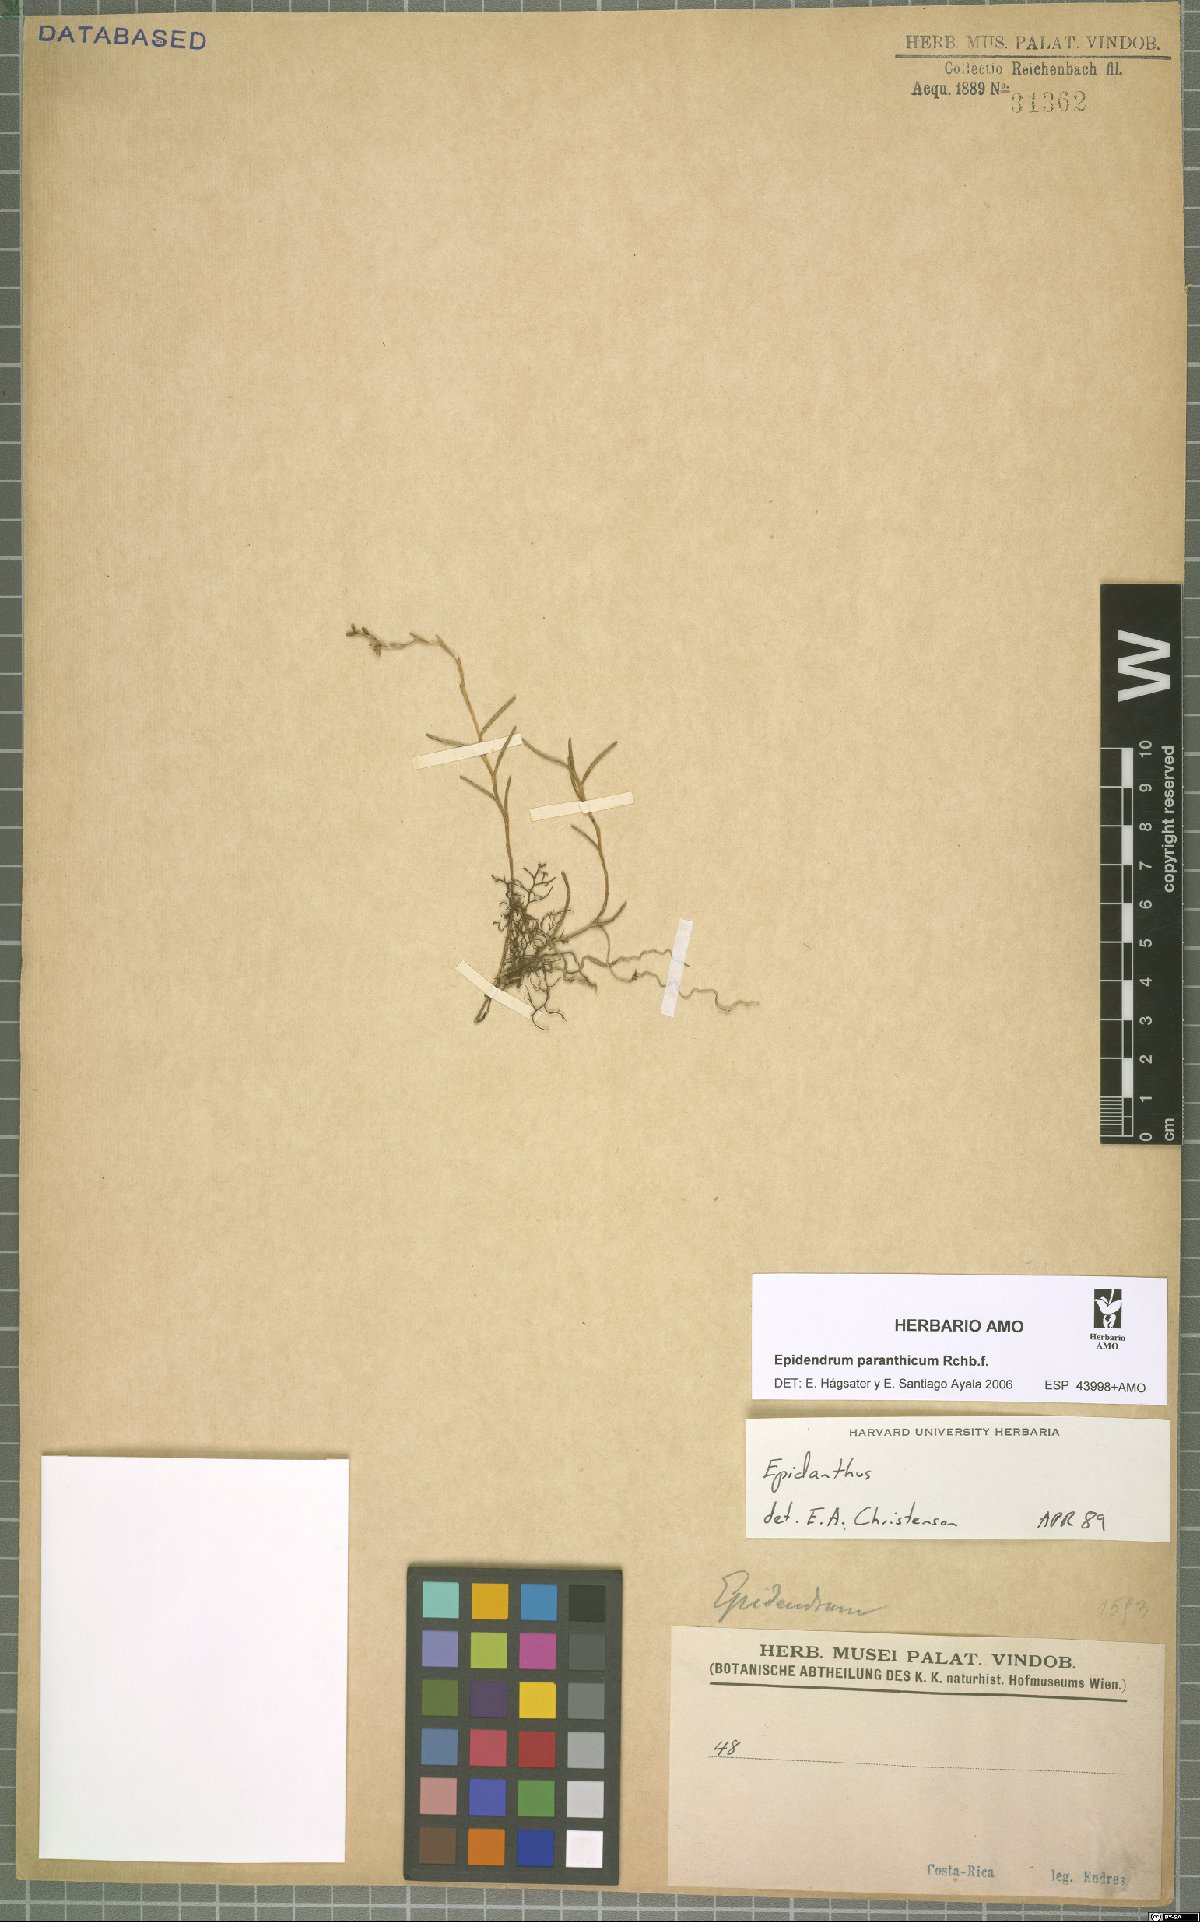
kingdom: Plantae
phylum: Tracheophyta
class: Liliopsida
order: Asparagales
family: Orchidaceae
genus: Epidendrum
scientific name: Epidendrum paranthicum
